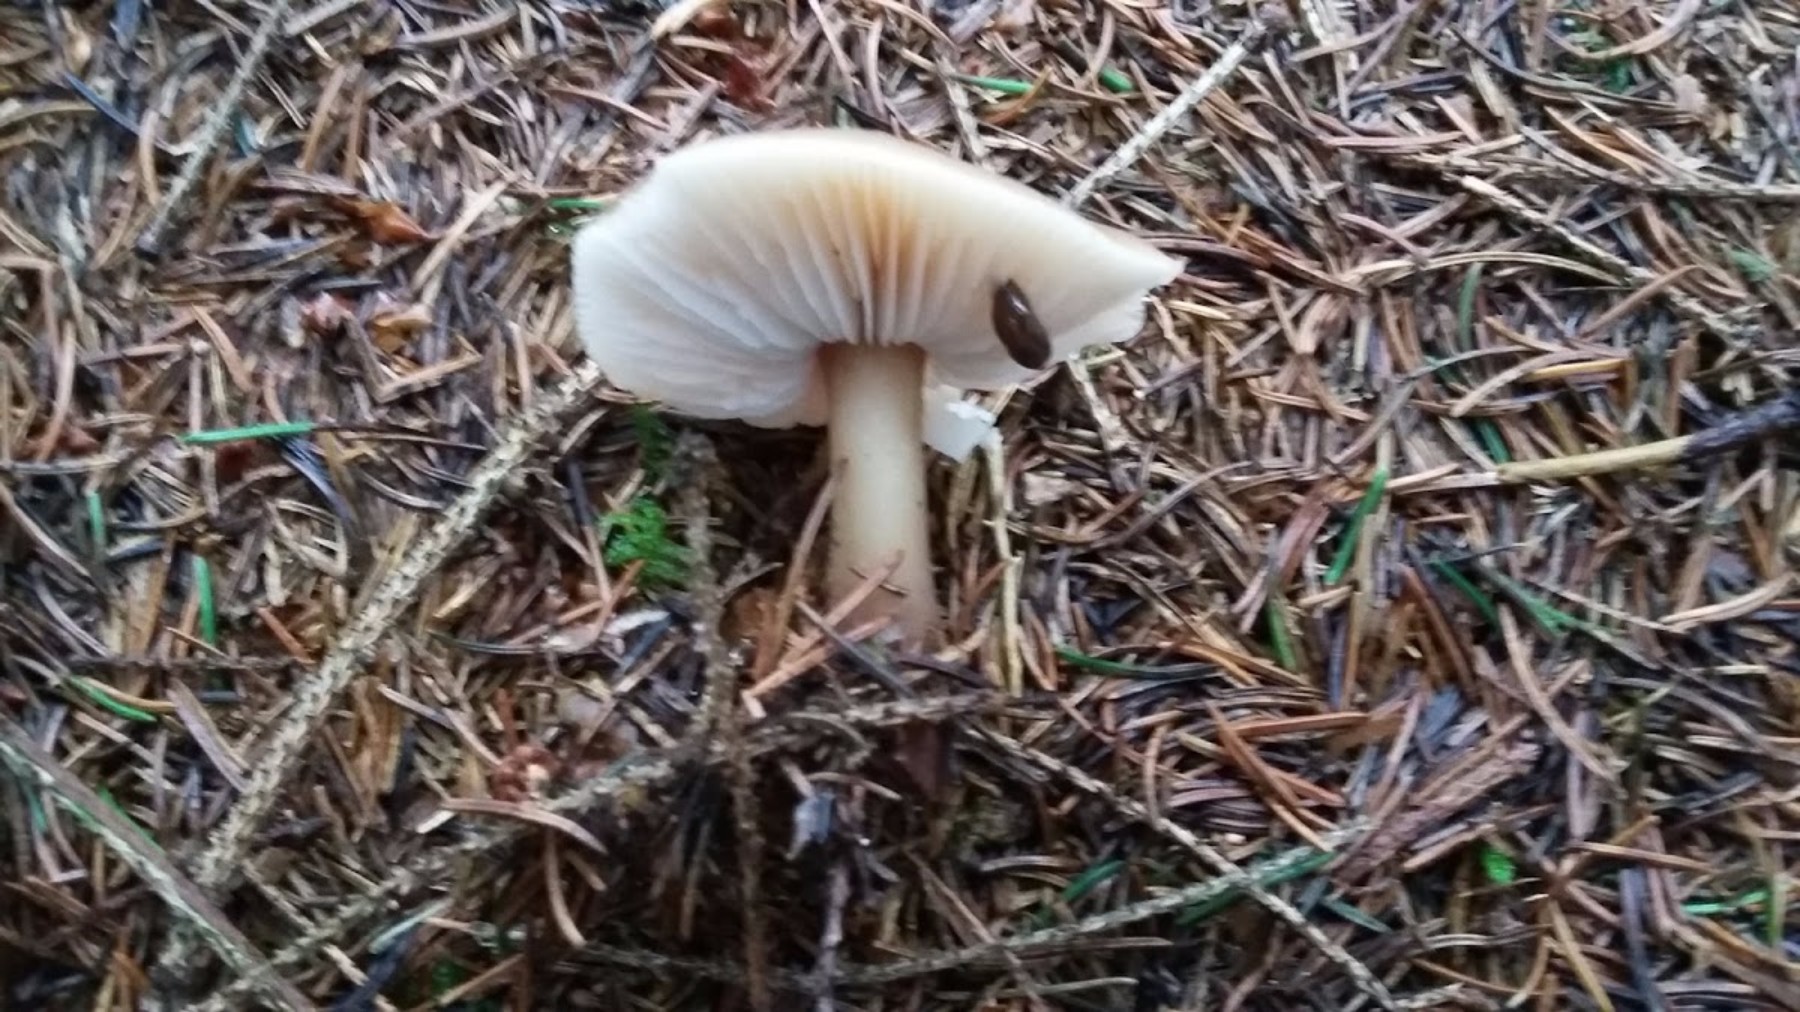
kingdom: Fungi
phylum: Basidiomycota
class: Agaricomycetes
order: Agaricales
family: Omphalotaceae
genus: Rhodocollybia
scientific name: Rhodocollybia asema
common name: horngrå fladhat
